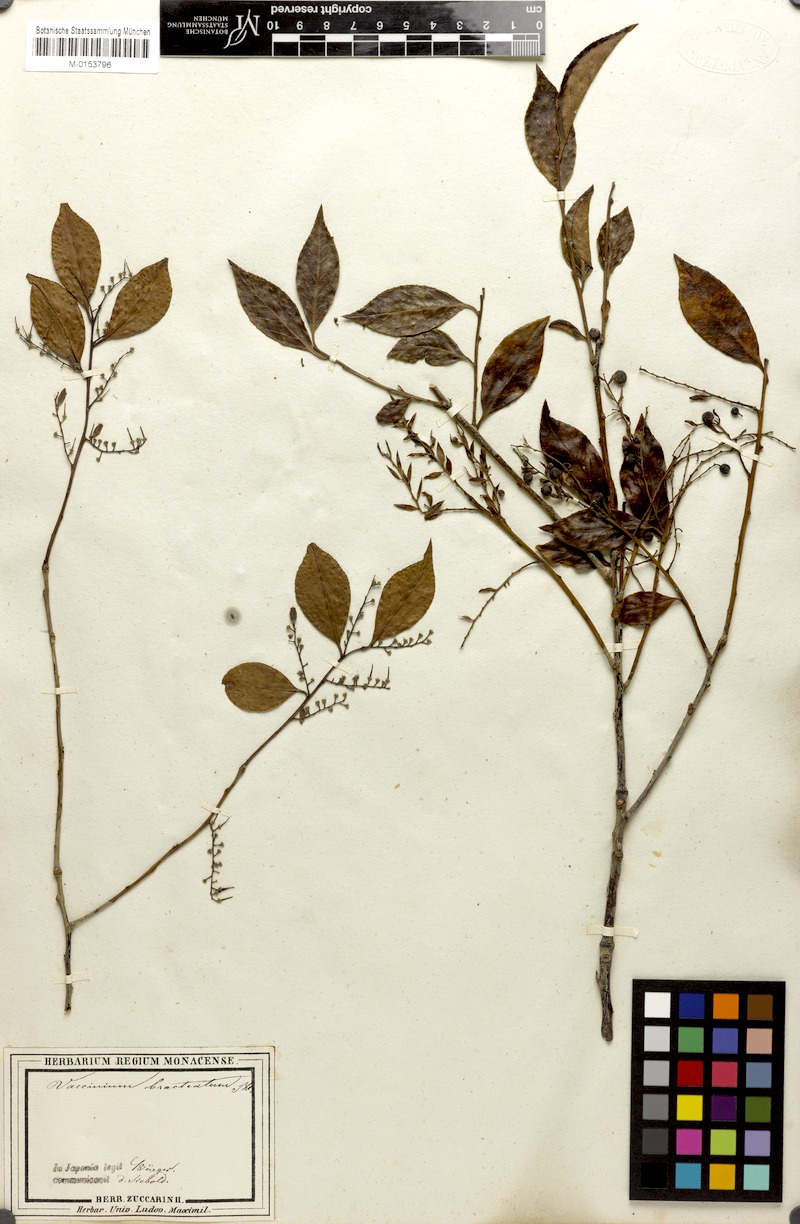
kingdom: Plantae
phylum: Tracheophyta
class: Magnoliopsida
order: Ericales
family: Ericaceae
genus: Vaccinium
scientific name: Vaccinium bracteatum
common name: Sea bilberry
